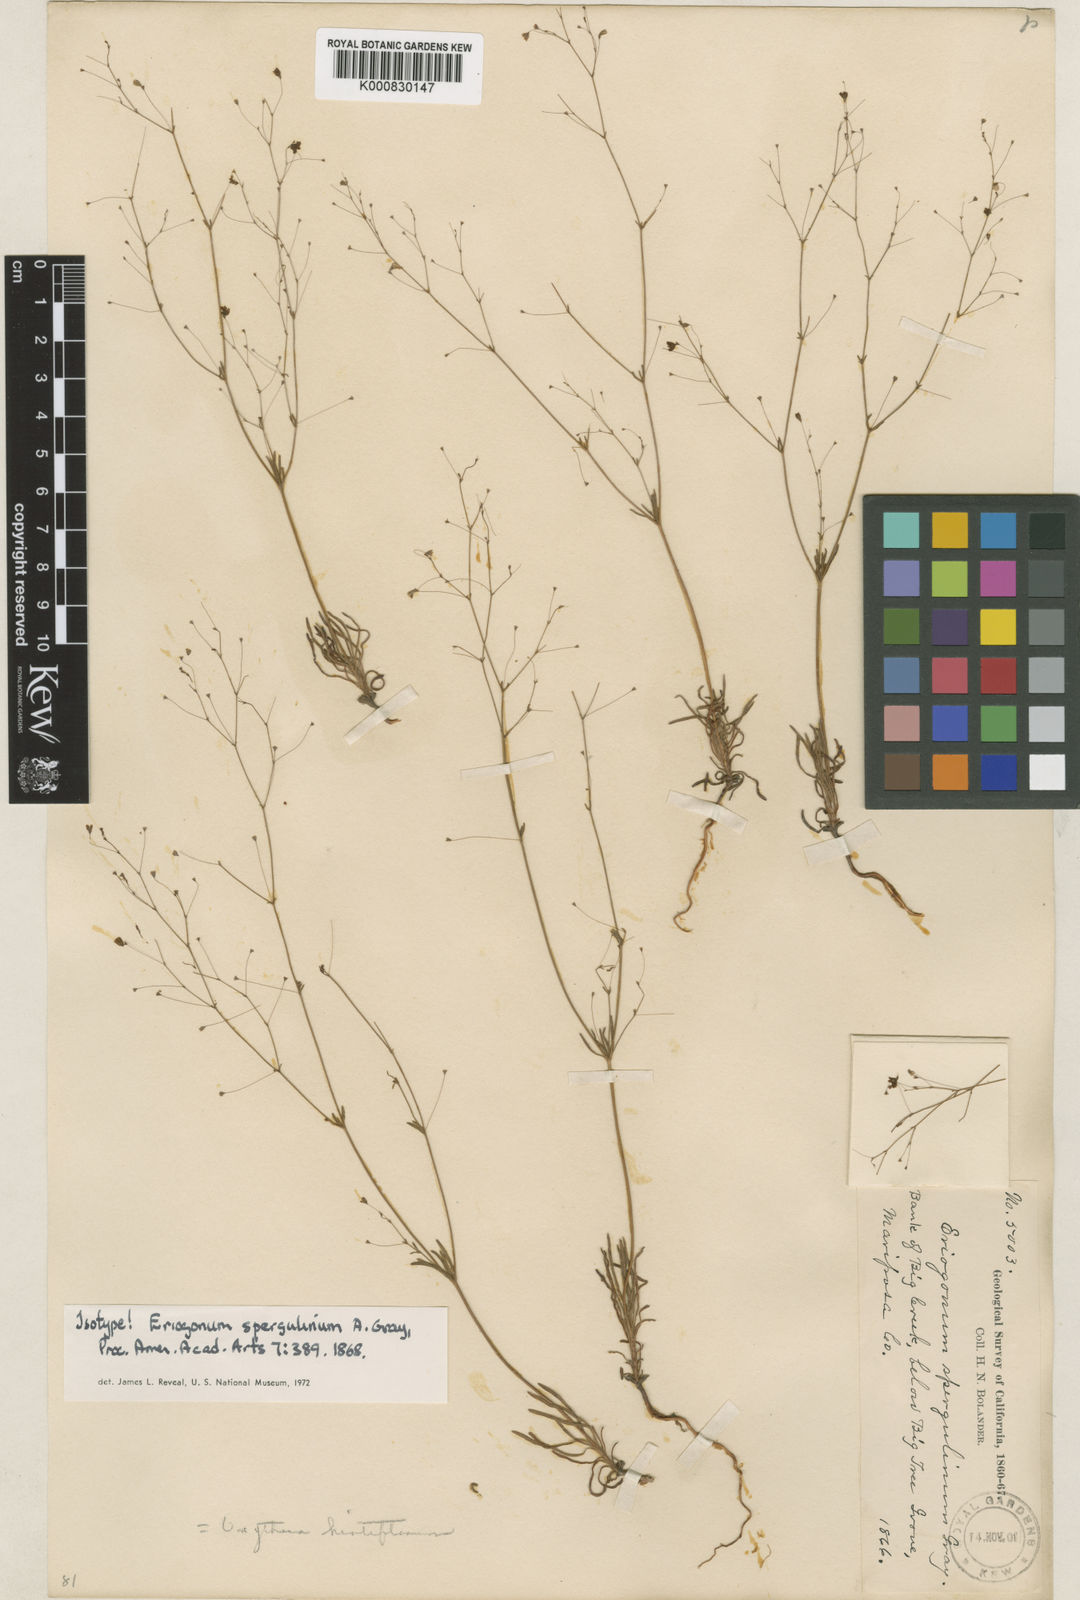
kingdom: Plantae
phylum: Tracheophyta
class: Magnoliopsida
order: Caryophyllales
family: Polygonaceae
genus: Eriogonum
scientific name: Eriogonum spergulinum
